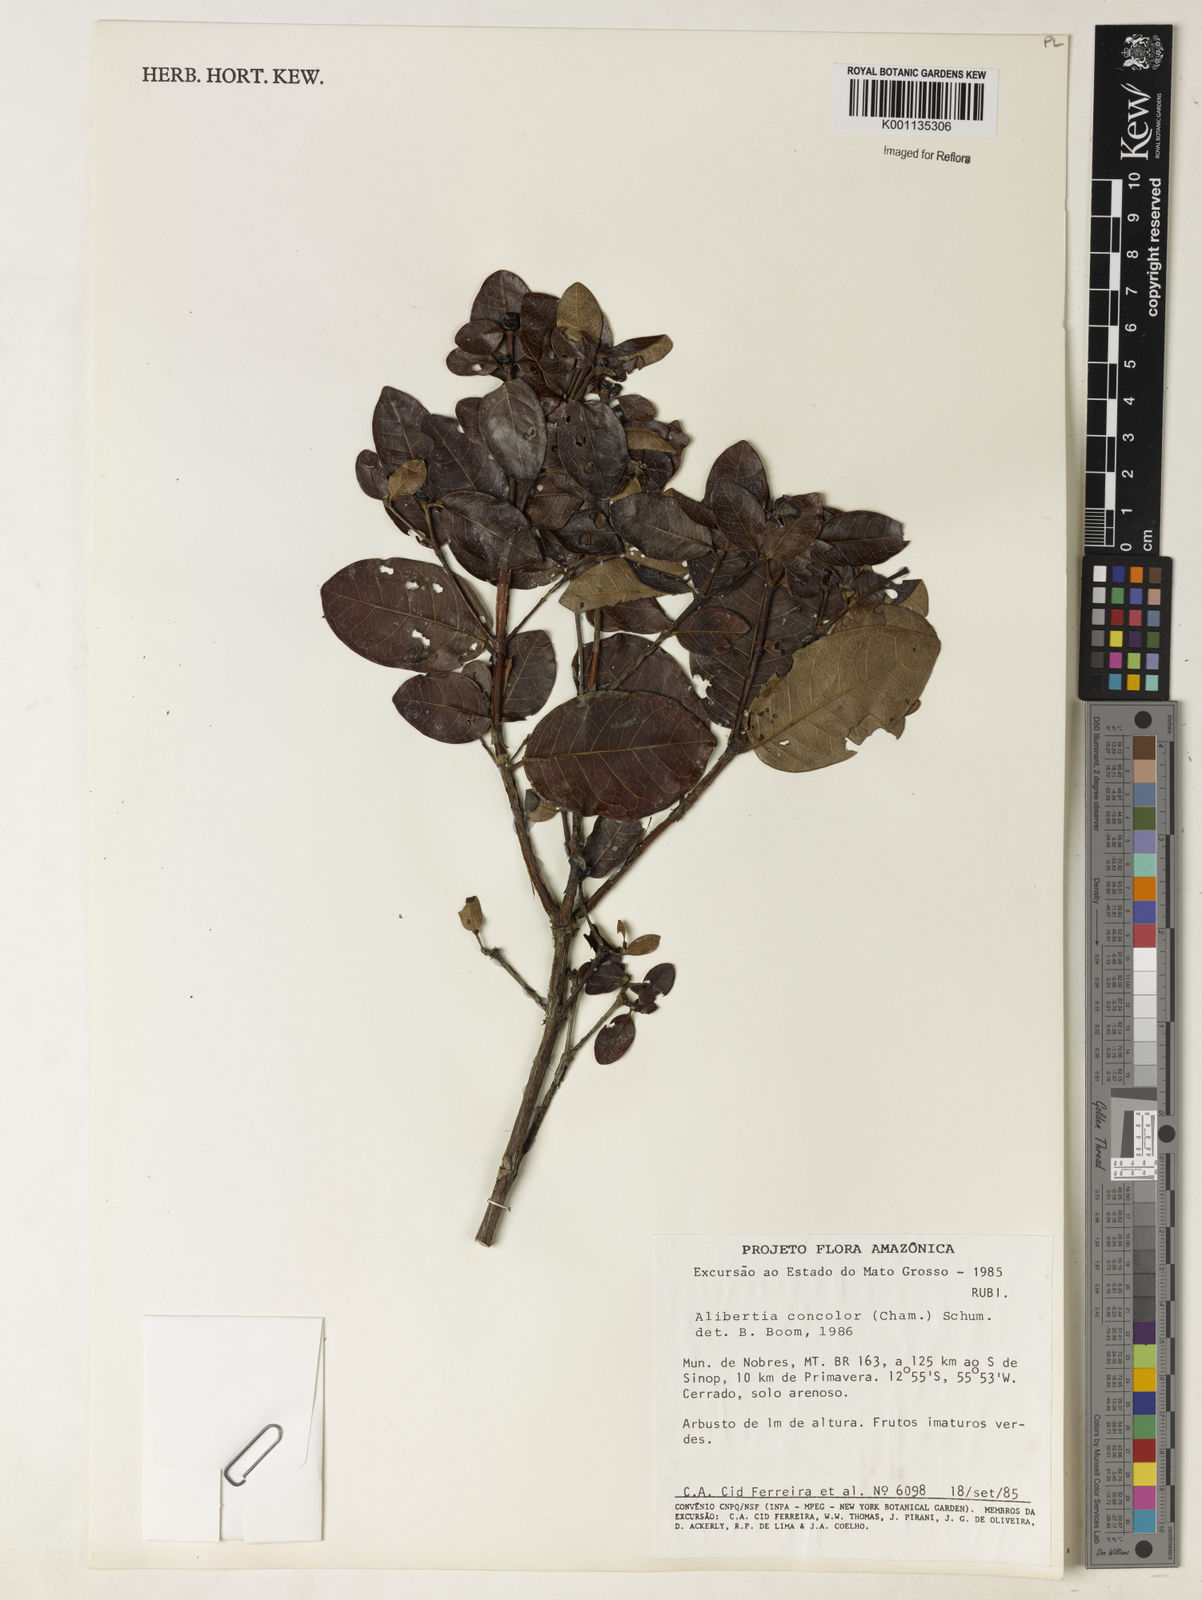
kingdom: Plantae
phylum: Tracheophyta
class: Magnoliopsida
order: Gentianales
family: Rubiaceae
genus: Cordiera
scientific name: Cordiera concolor
